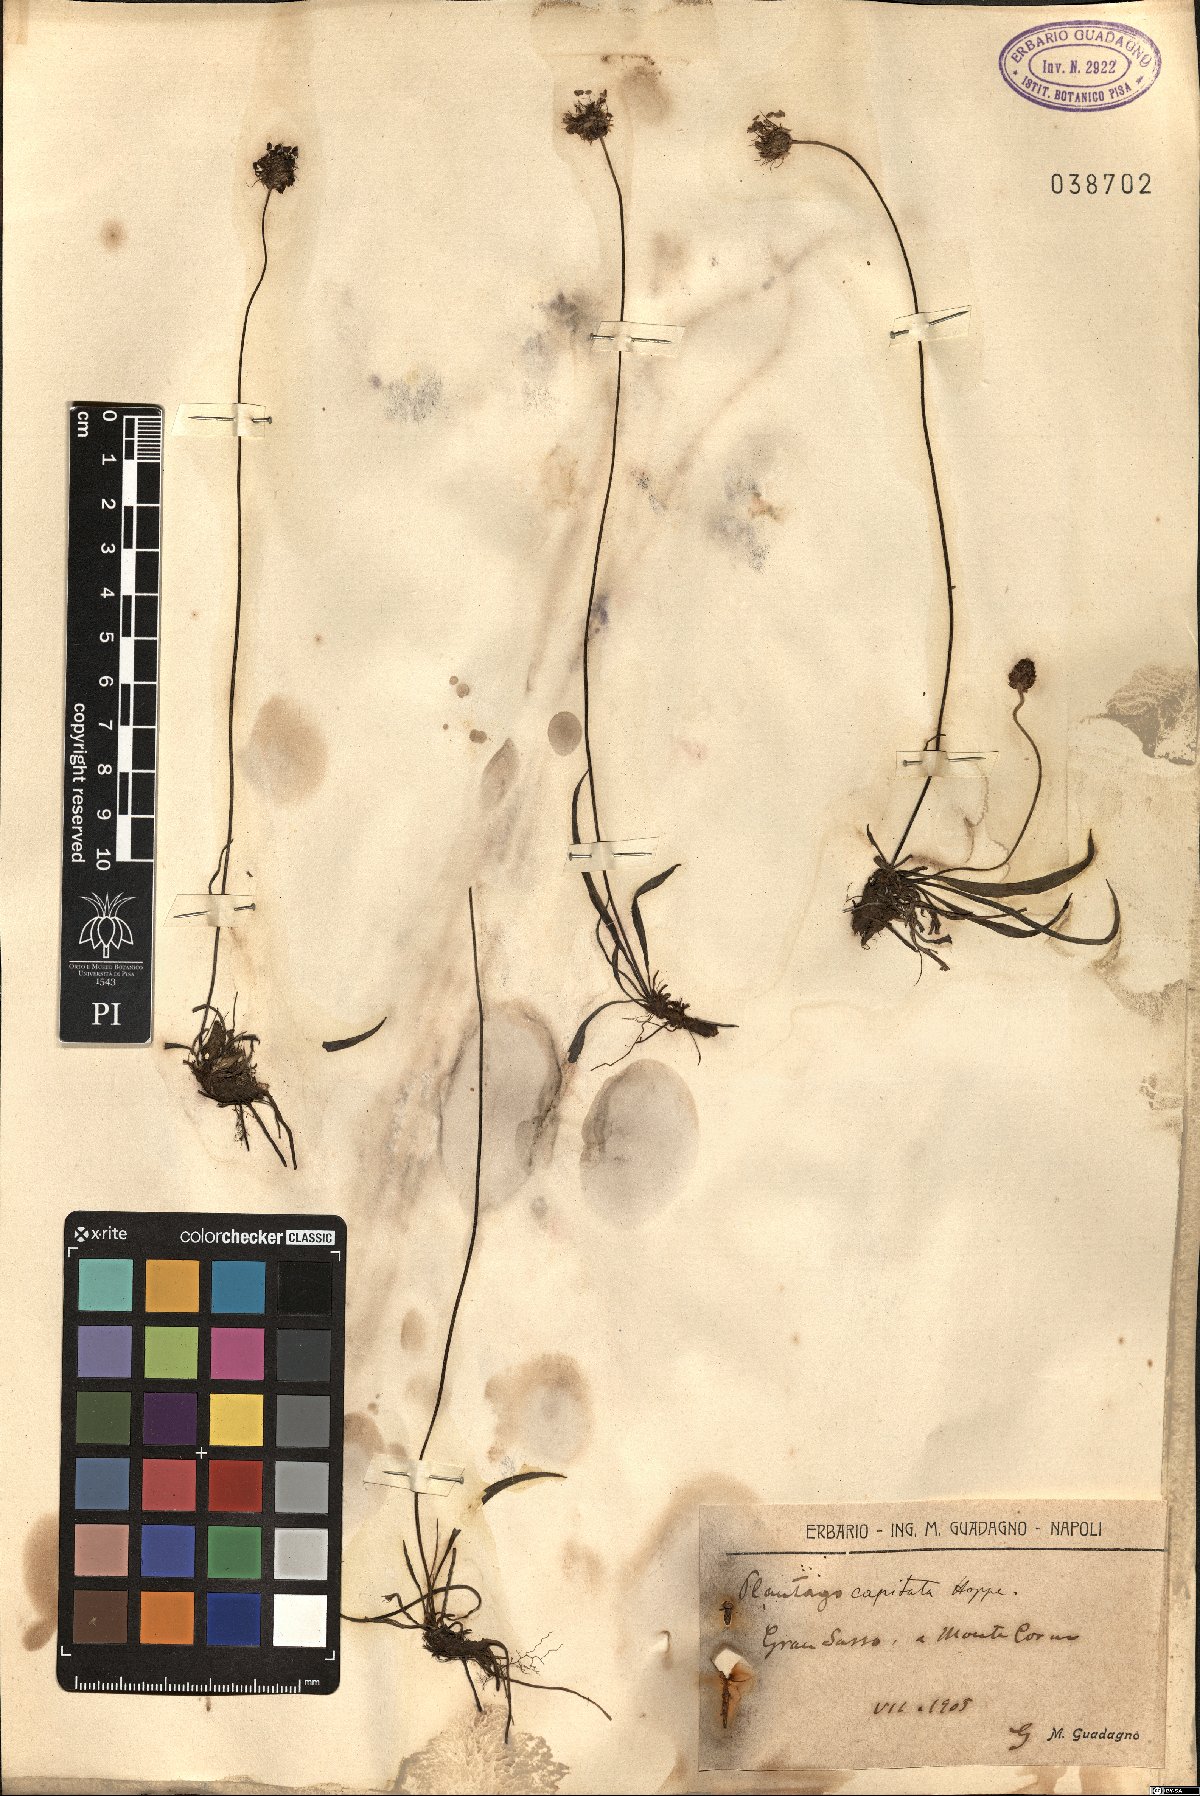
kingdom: Plantae
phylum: Tracheophyta
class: Magnoliopsida
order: Lamiales
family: Plantaginaceae
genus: Plantago
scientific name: Plantago capitata
